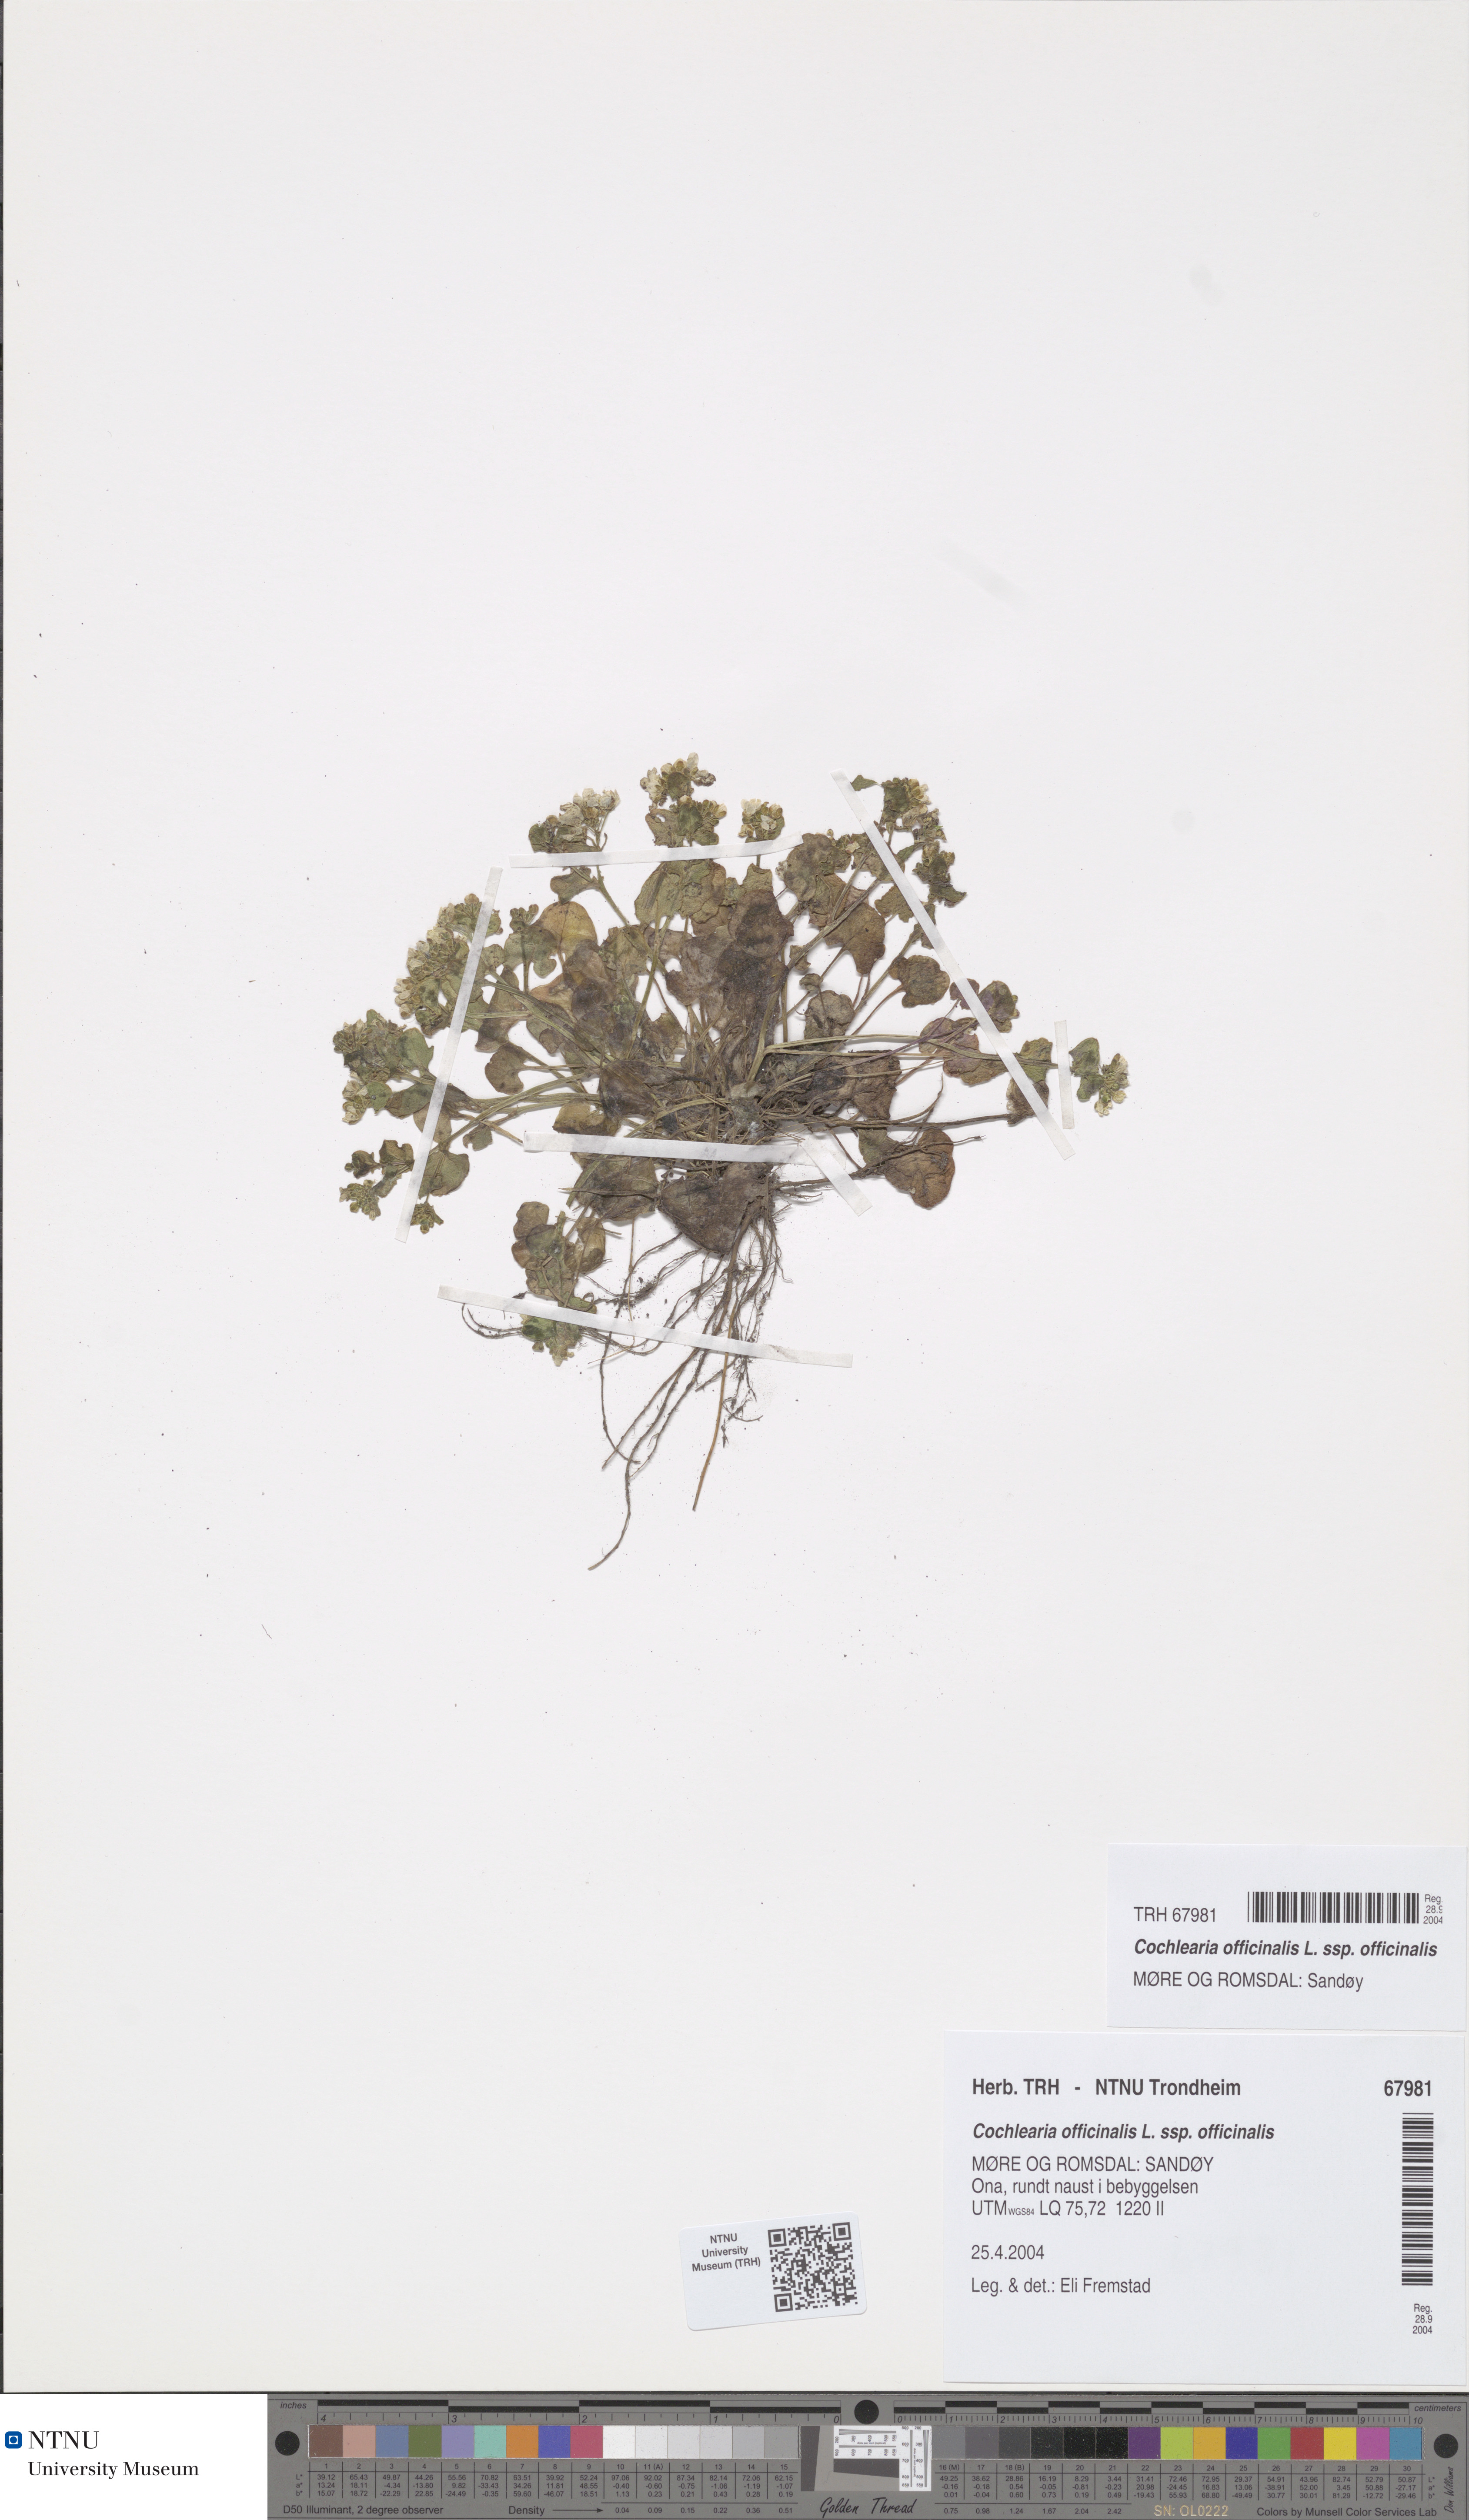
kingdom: Plantae
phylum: Tracheophyta
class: Magnoliopsida
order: Brassicales
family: Brassicaceae
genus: Cochlearia
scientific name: Cochlearia officinalis
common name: Scurvy-grass
